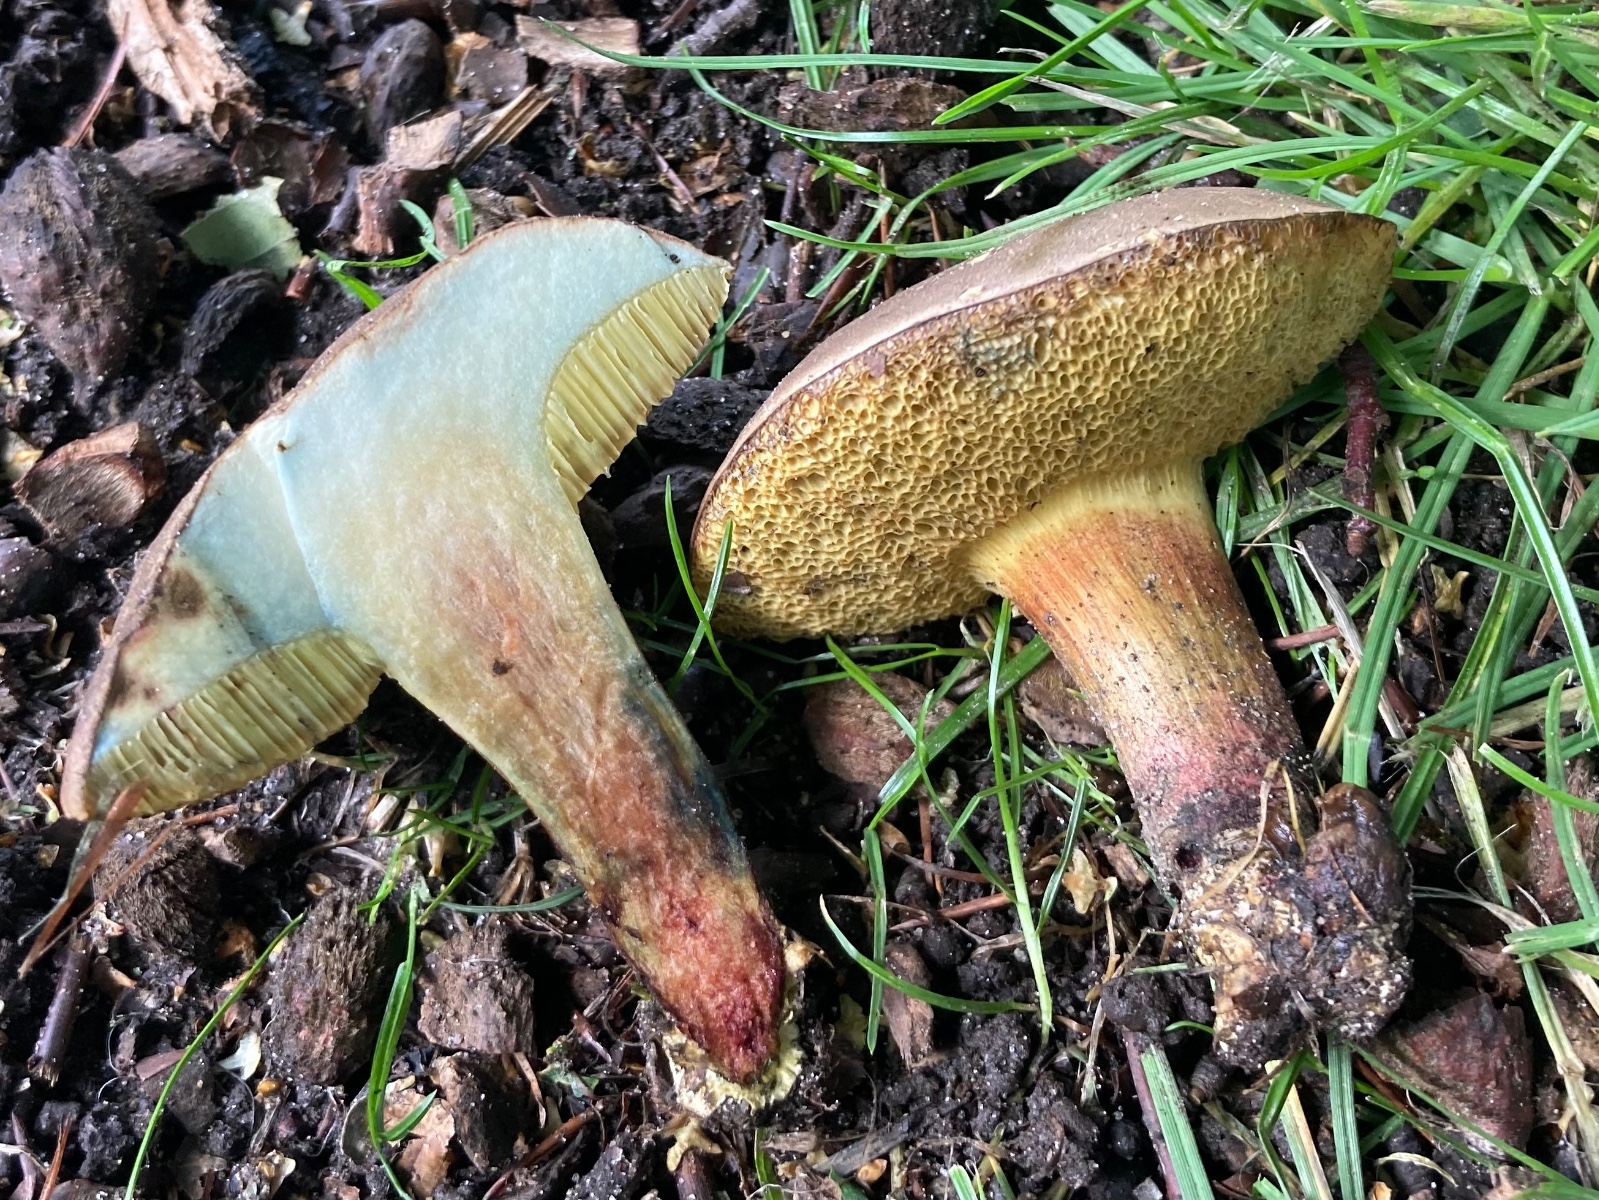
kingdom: Fungi
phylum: Basidiomycota
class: Agaricomycetes
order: Boletales
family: Boletaceae
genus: Hortiboletus
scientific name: Hortiboletus bubalinus
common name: aurora-rørhat
